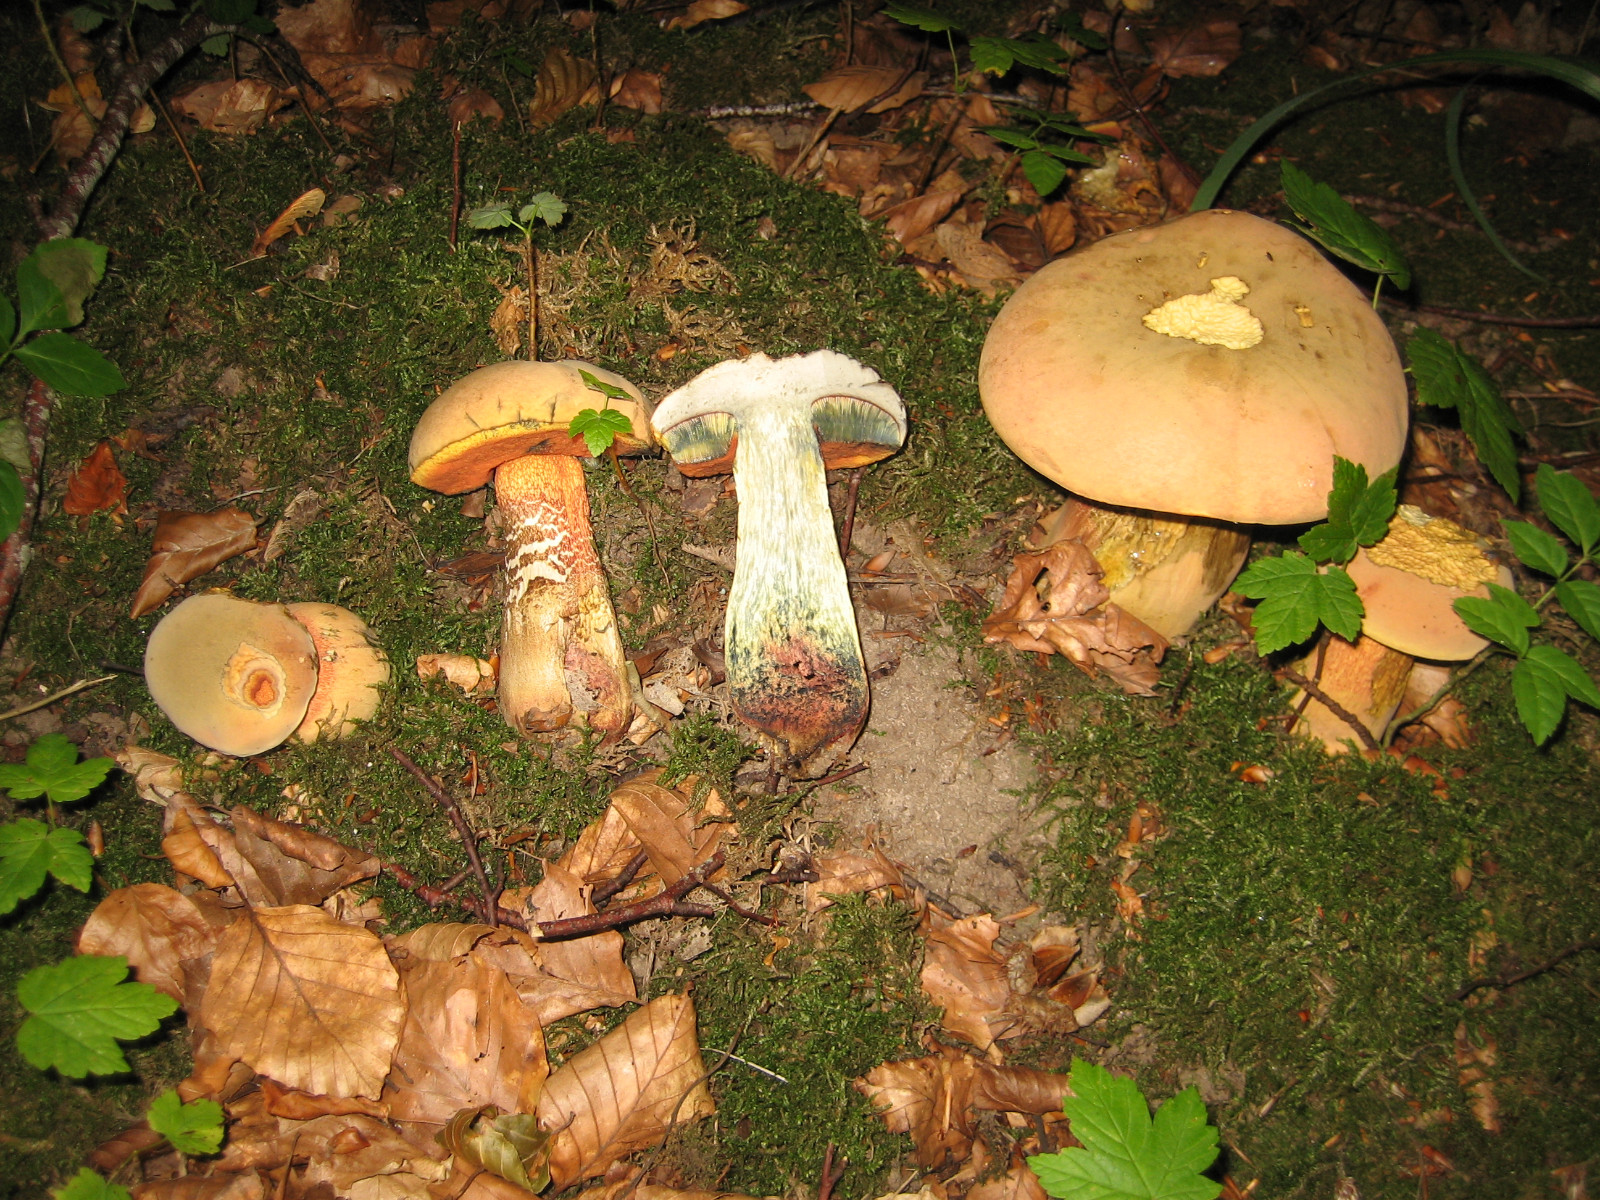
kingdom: Fungi
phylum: Basidiomycota
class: Agaricomycetes
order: Boletales
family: Boletaceae
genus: Suillellus
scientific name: Suillellus luridus
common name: netstokket indigorørhat
